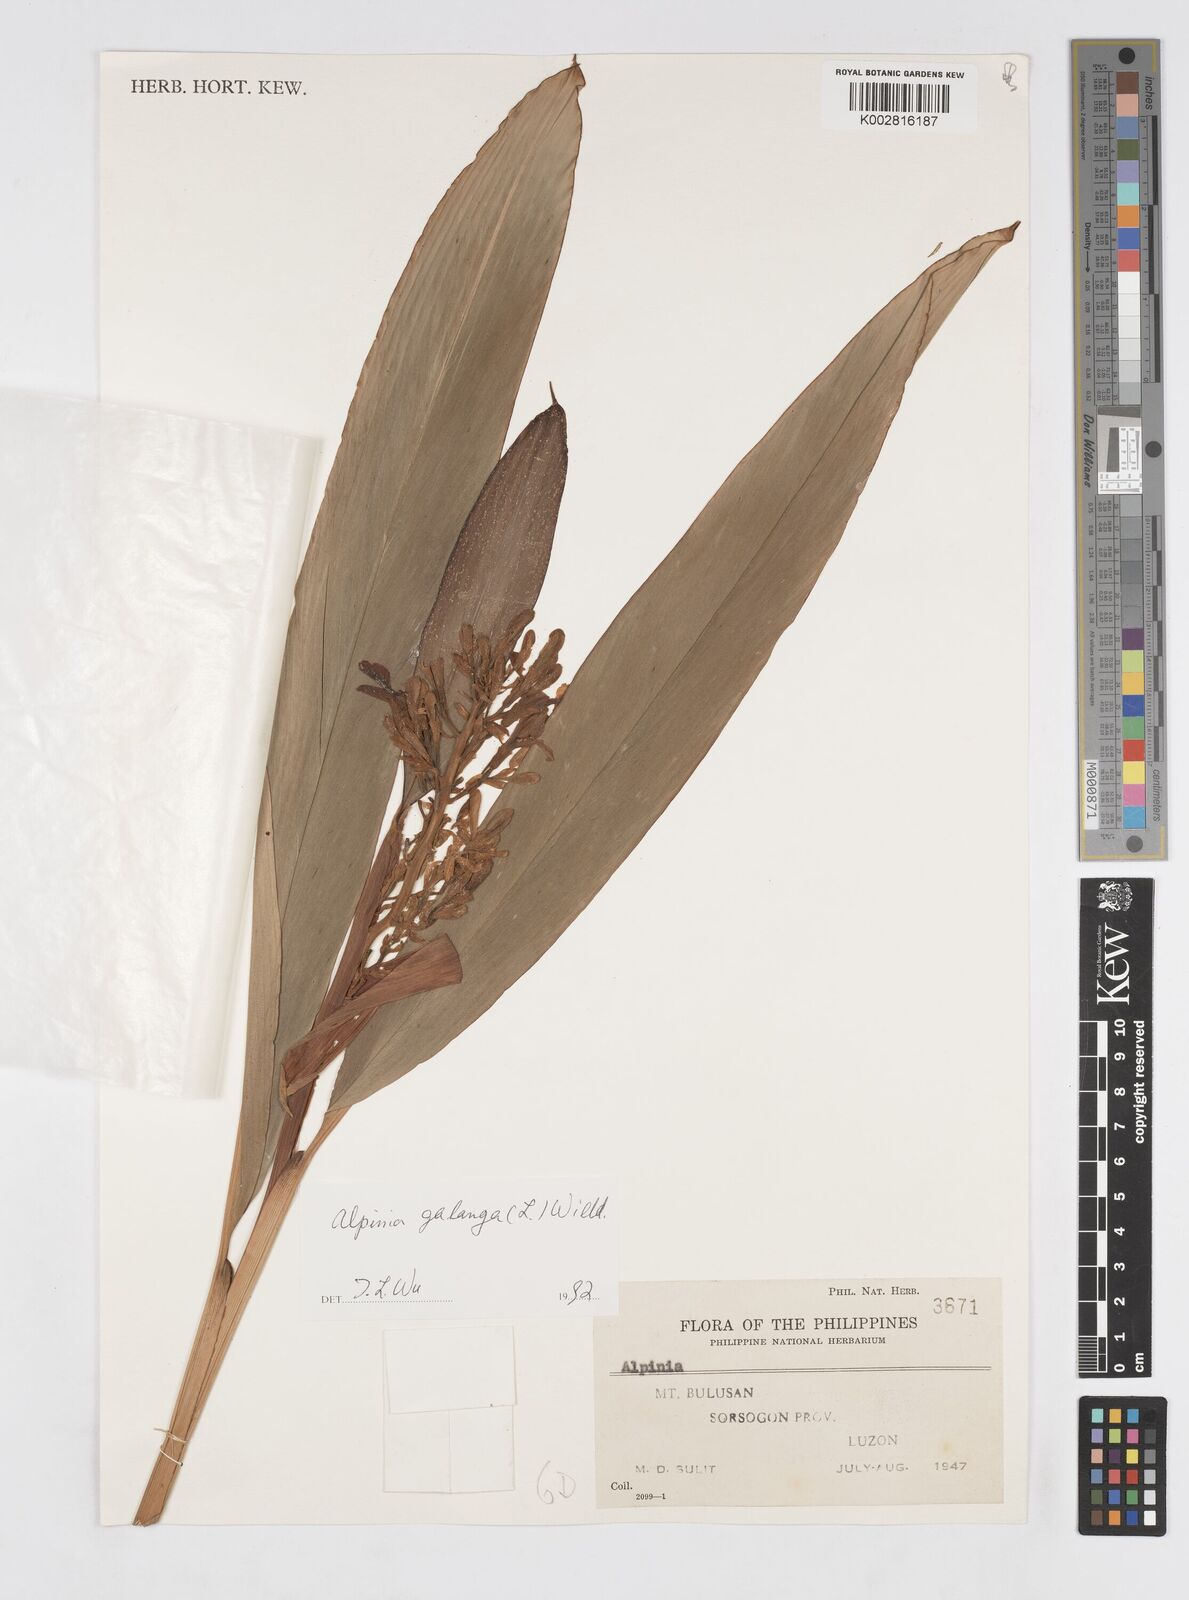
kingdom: Plantae
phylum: Tracheophyta
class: Liliopsida
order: Zingiberales
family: Zingiberaceae
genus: Alpinia
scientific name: Alpinia galanga
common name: Siamese-ginger
